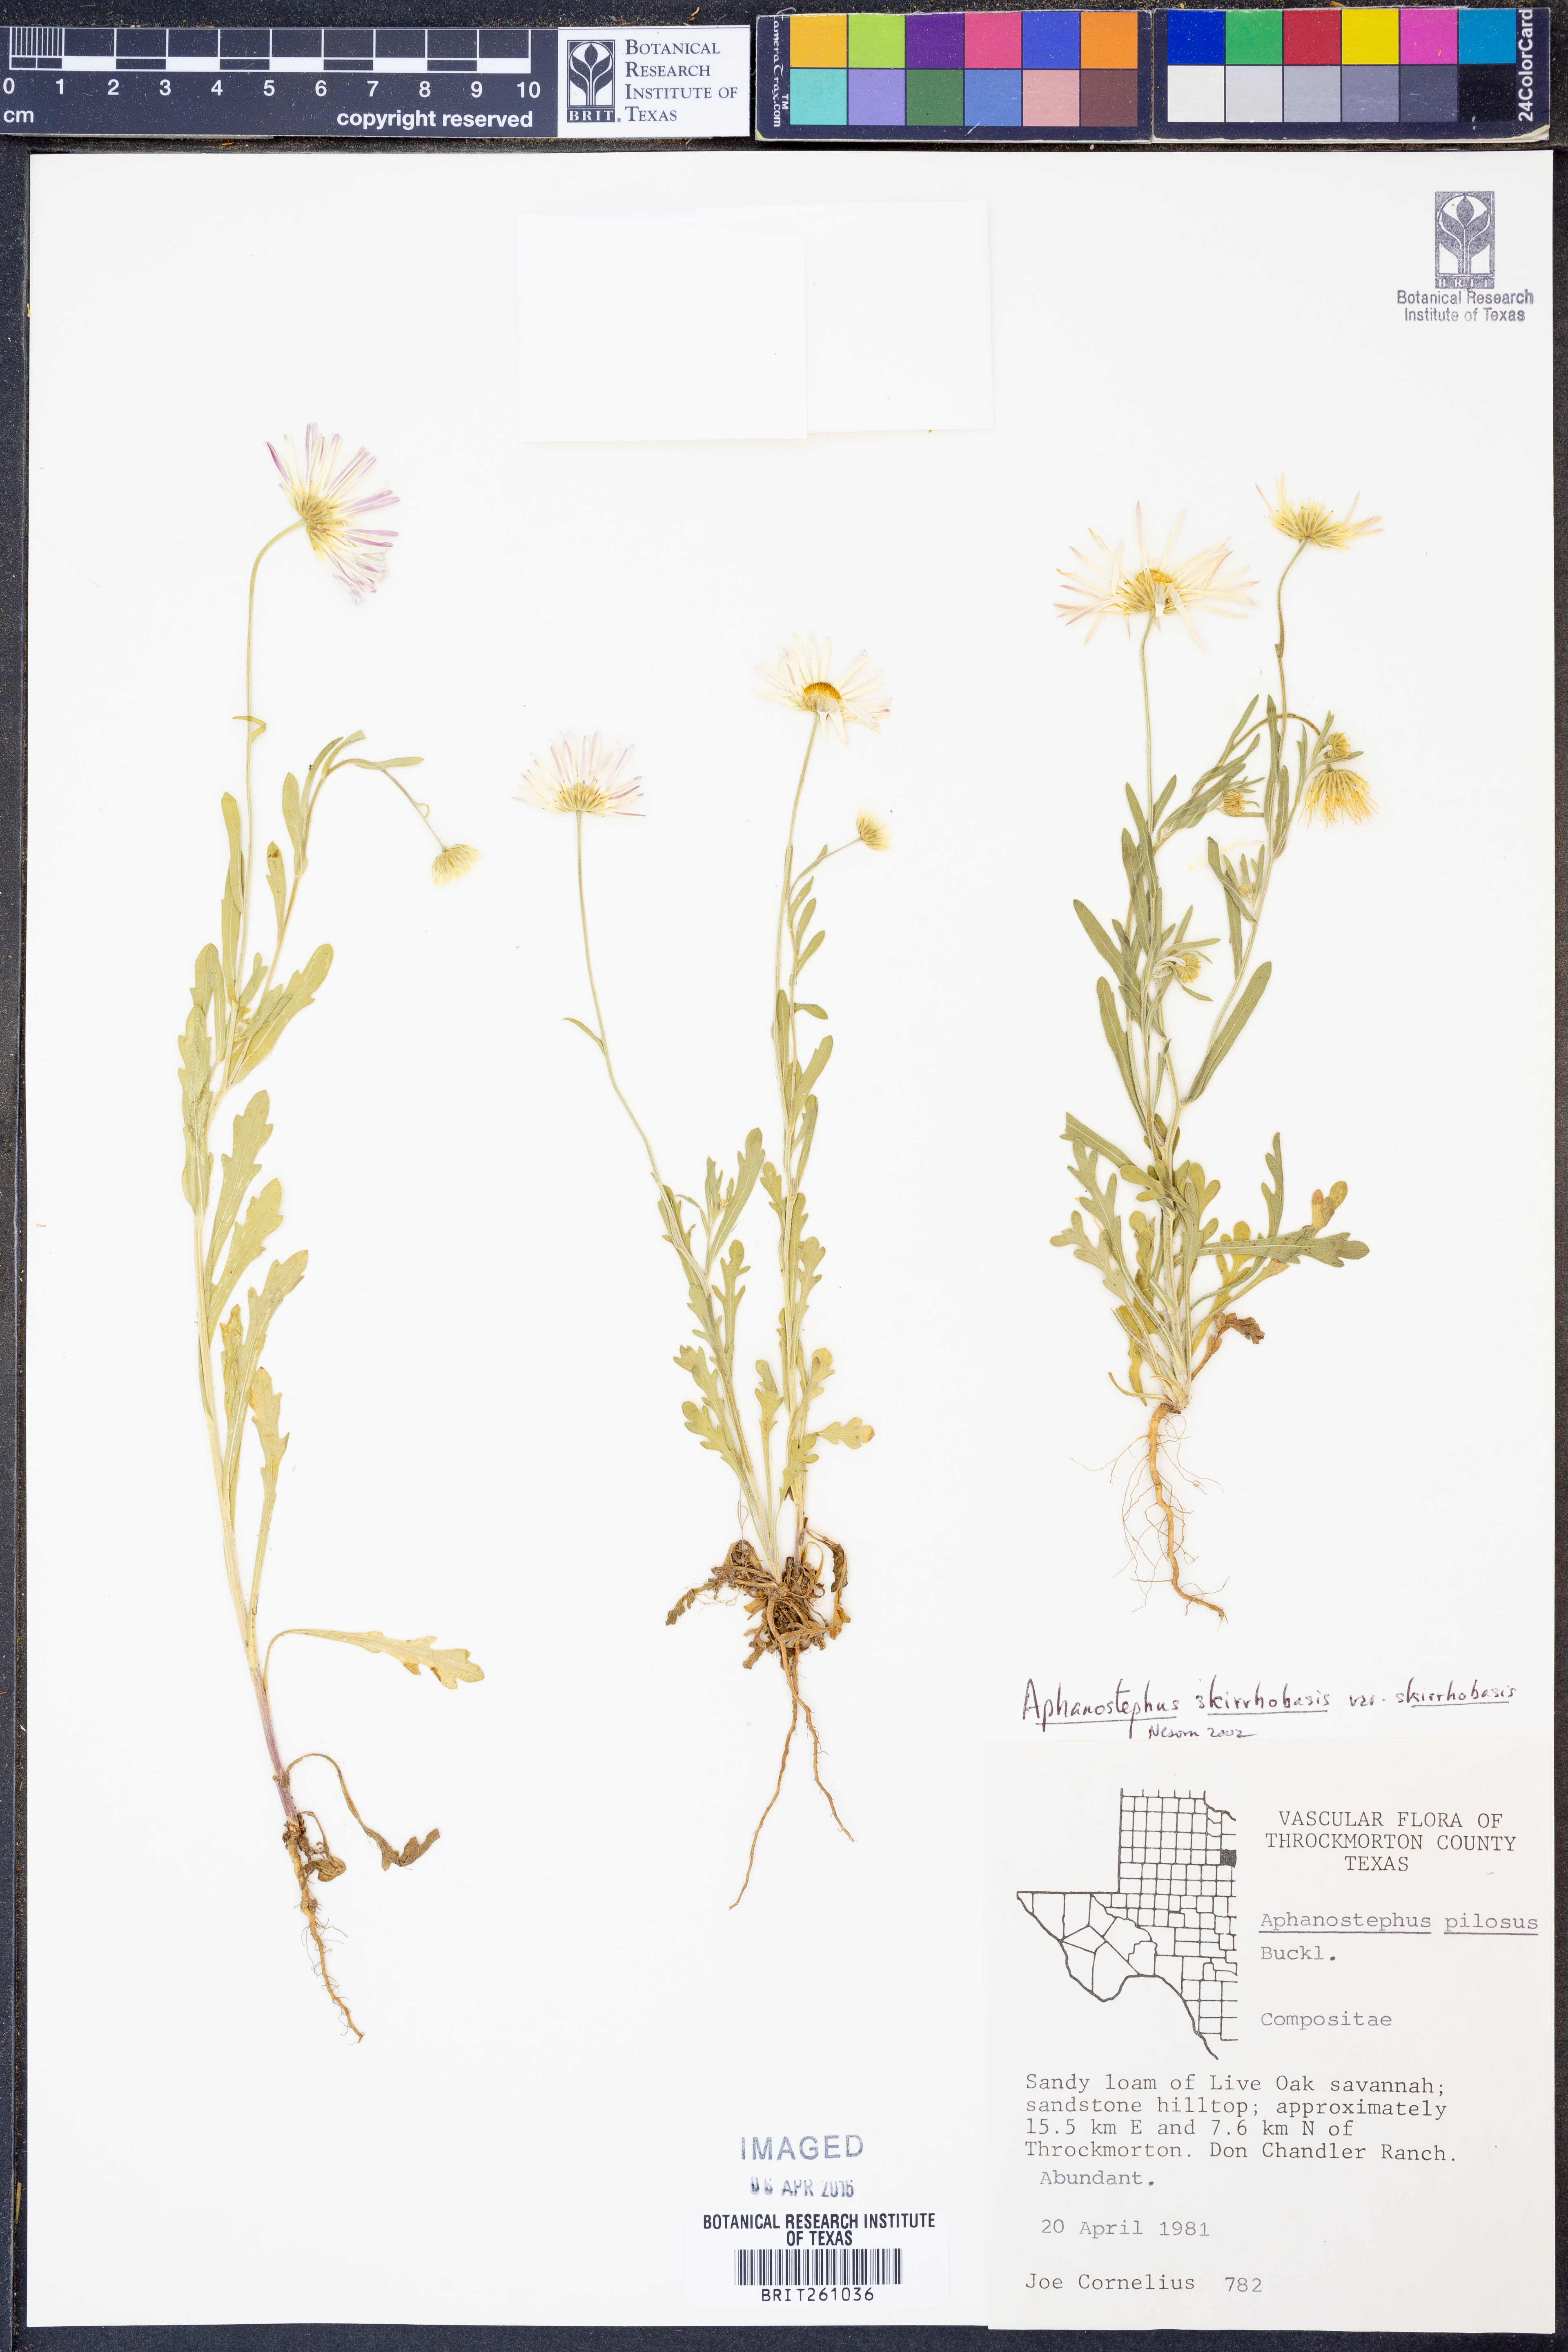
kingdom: Plantae
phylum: Tracheophyta
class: Magnoliopsida
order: Asterales
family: Asteraceae
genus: Aphanostephus
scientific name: Aphanostephus skirrhobasis
